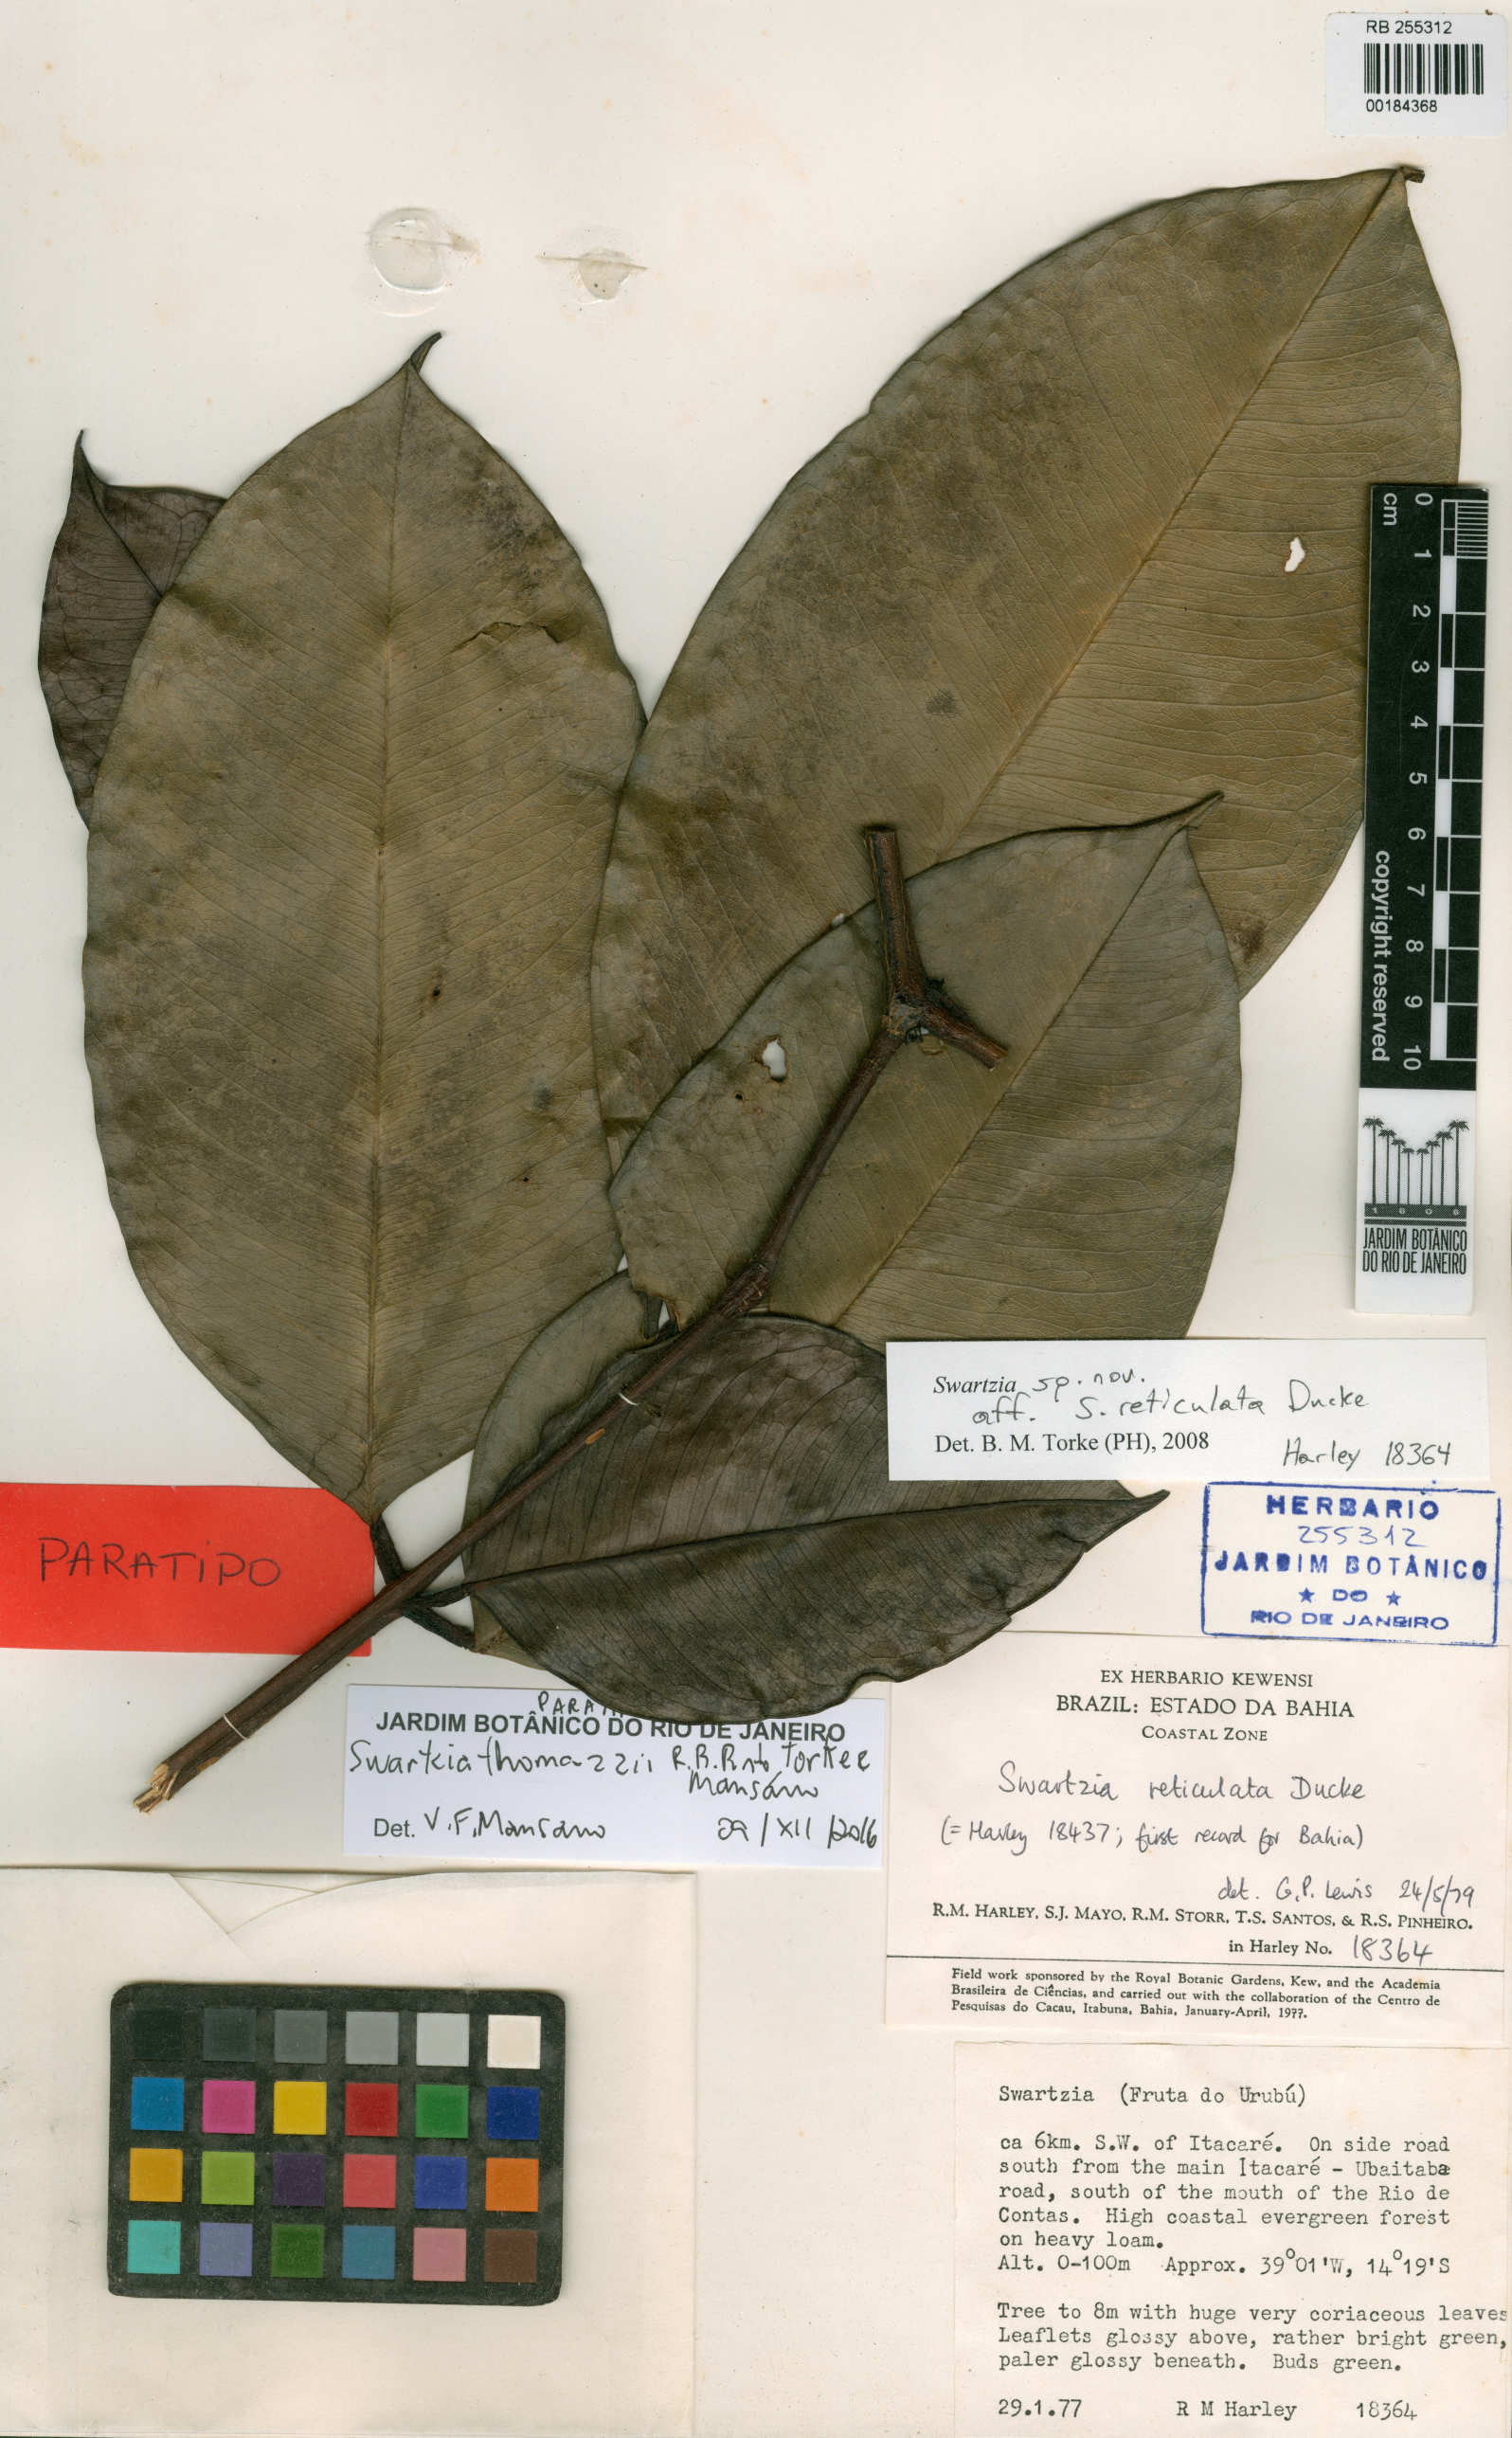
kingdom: Plantae
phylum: Tracheophyta
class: Magnoliopsida
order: Fabales
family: Fabaceae
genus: Swartzia
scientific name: Swartzia thomasii
